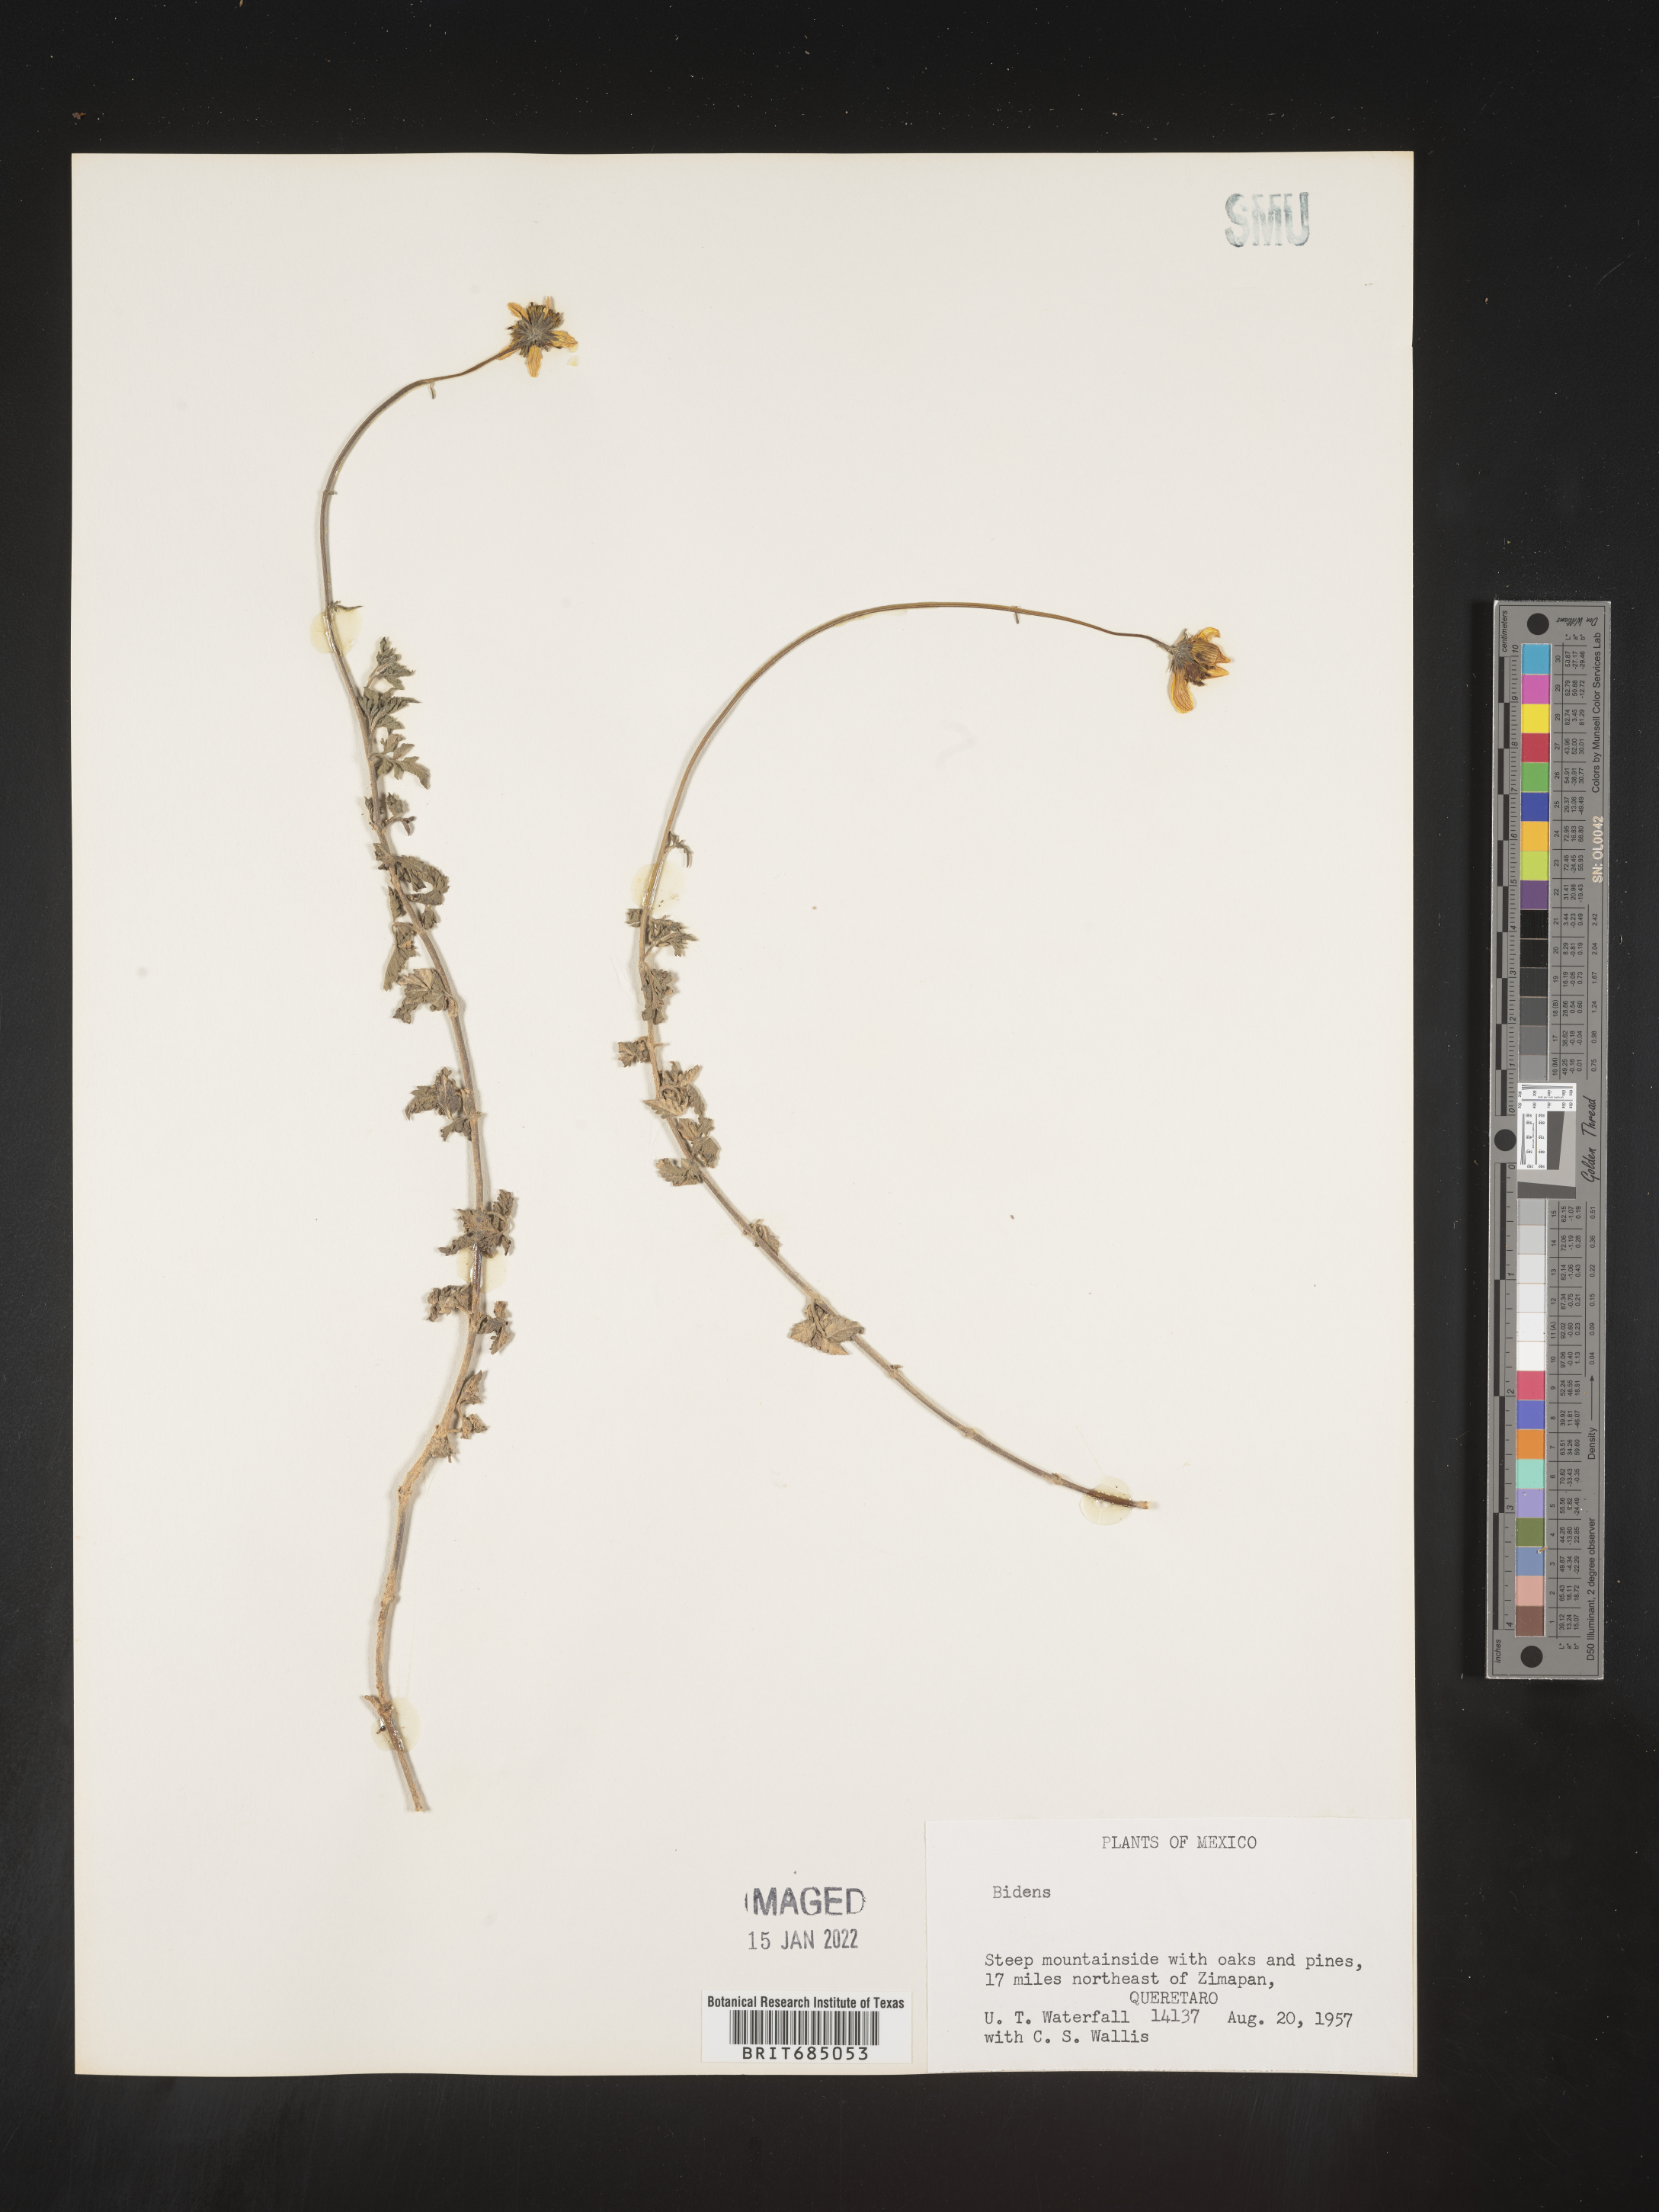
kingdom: Plantae
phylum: Tracheophyta
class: Magnoliopsida
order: Asterales
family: Asteraceae
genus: Bidens
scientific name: Bidens
